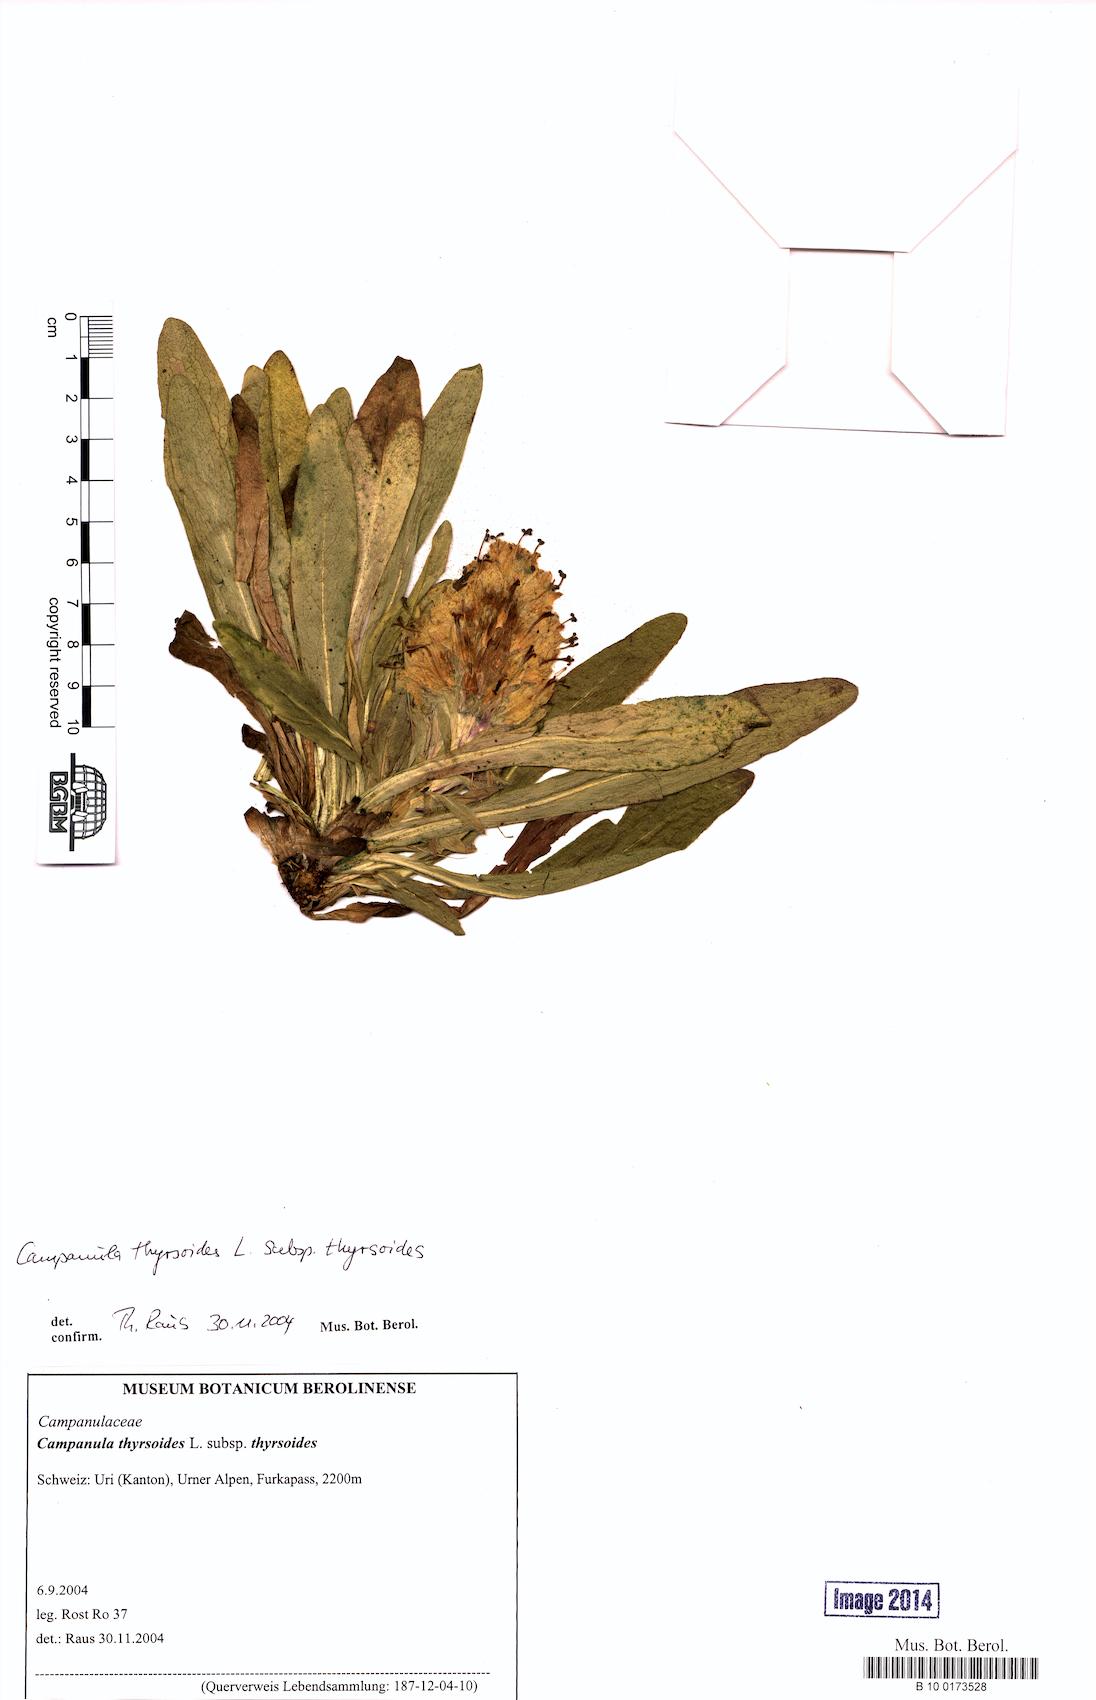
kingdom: Plantae
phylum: Tracheophyta
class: Magnoliopsida
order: Asterales
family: Campanulaceae
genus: Campanula
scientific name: Campanula thyrsoides
